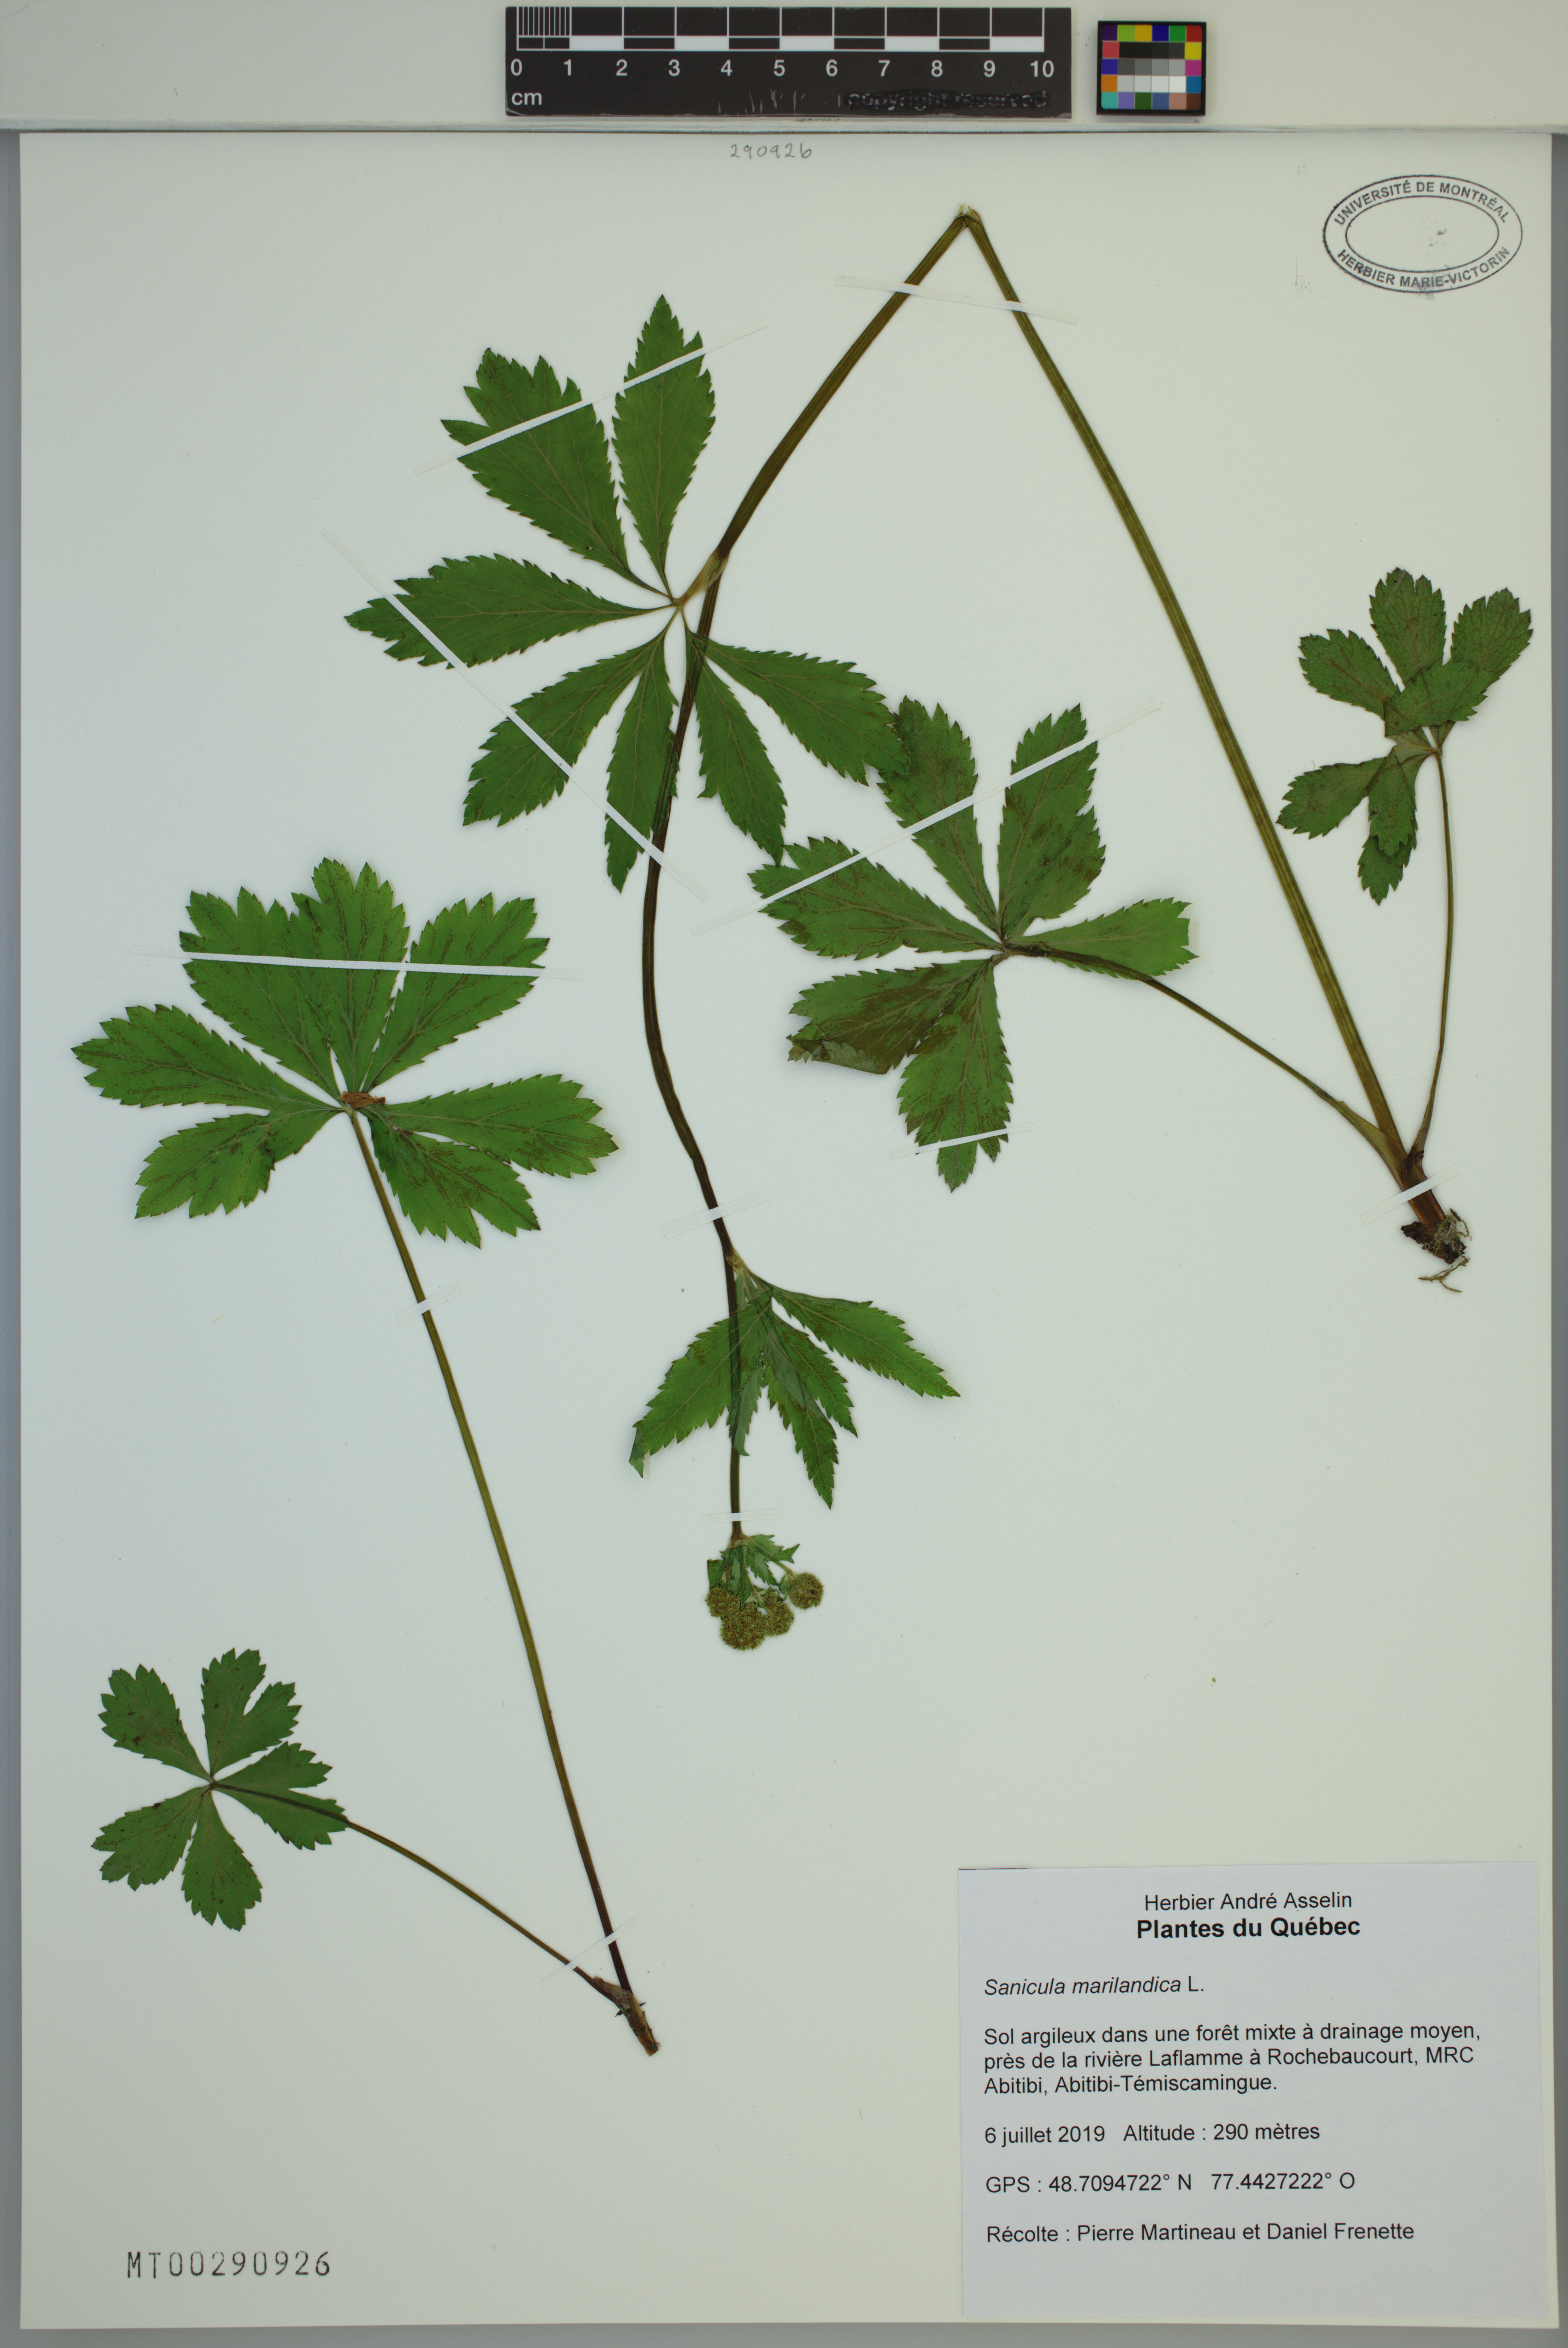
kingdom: Plantae
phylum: Tracheophyta
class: Magnoliopsida
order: Apiales
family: Apiaceae
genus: Sanicula
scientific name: Sanicula marilandica
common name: Black snakeroot
